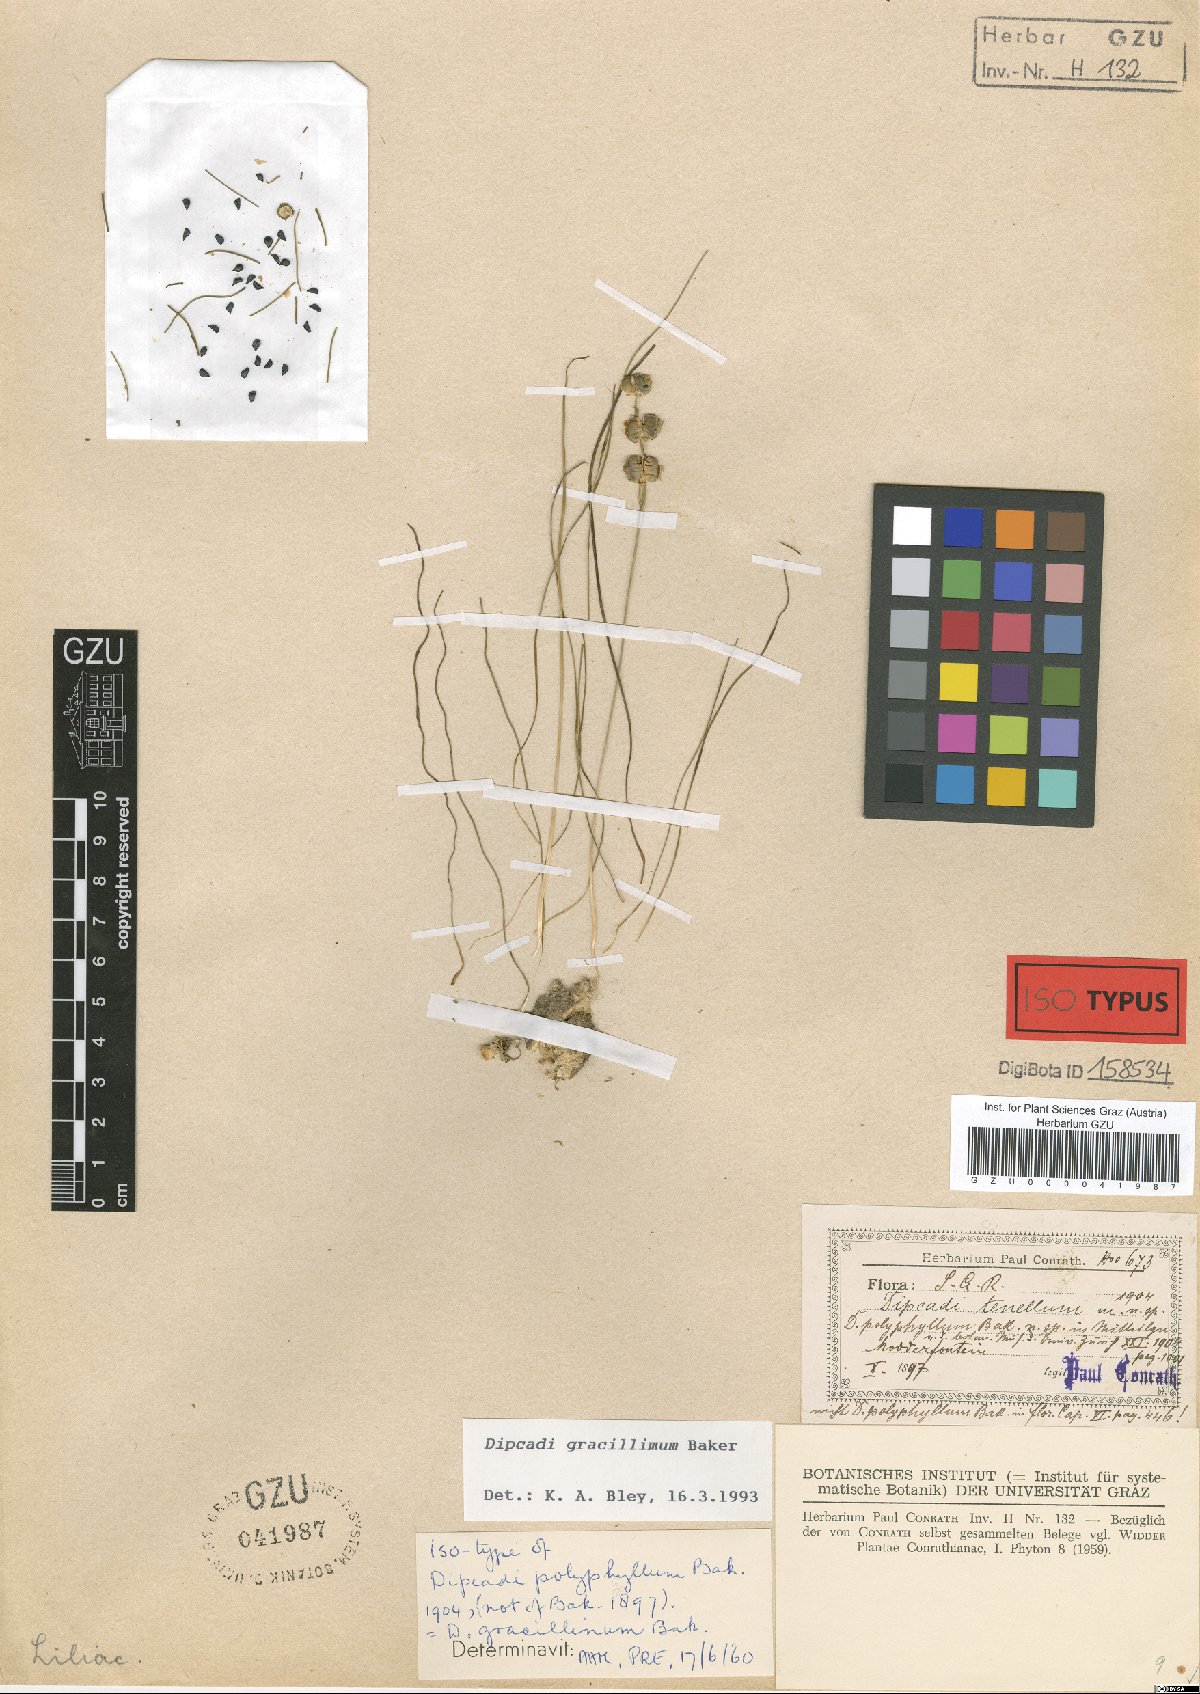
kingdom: Plantae
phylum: Tracheophyta
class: Liliopsida
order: Asparagales
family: Asparagaceae
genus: Dipcadi
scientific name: Dipcadi gracillimum
